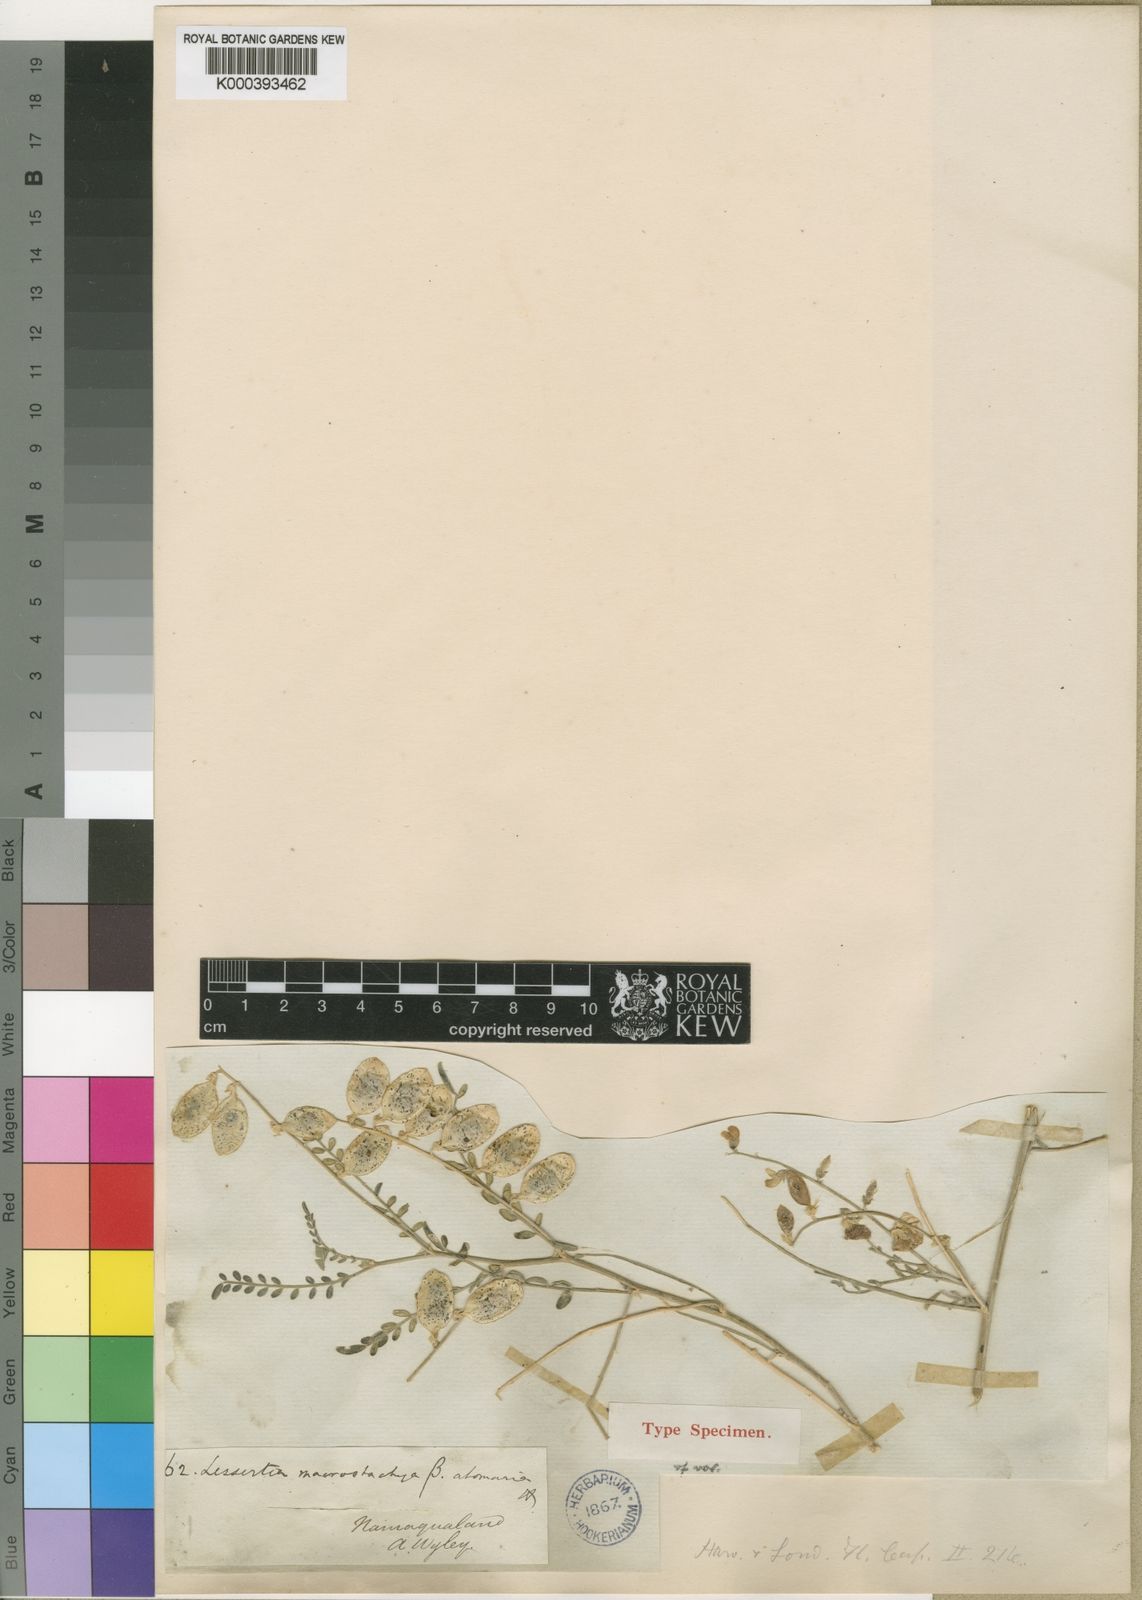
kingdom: Plantae
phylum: Tracheophyta
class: Magnoliopsida
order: Fabales
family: Fabaceae
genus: Lessertia
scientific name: Lessertia macrostachya
